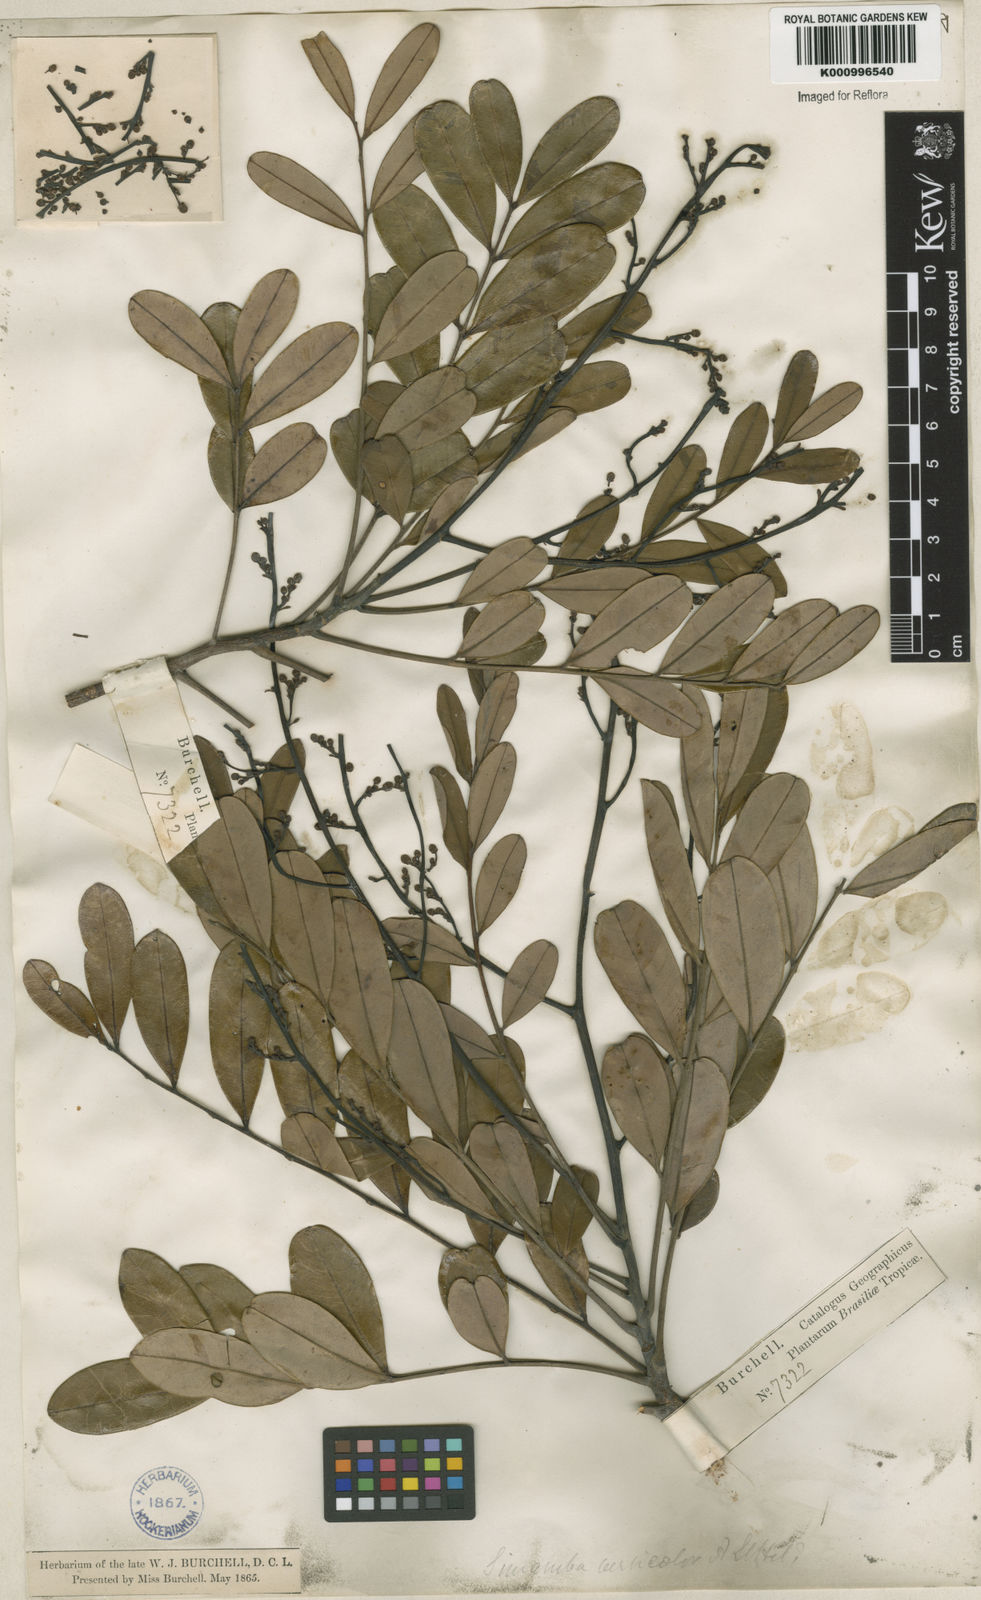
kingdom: Plantae
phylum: Tracheophyta
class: Magnoliopsida
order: Sapindales
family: Simaroubaceae
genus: Simarouba
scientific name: Simarouba versicolor
